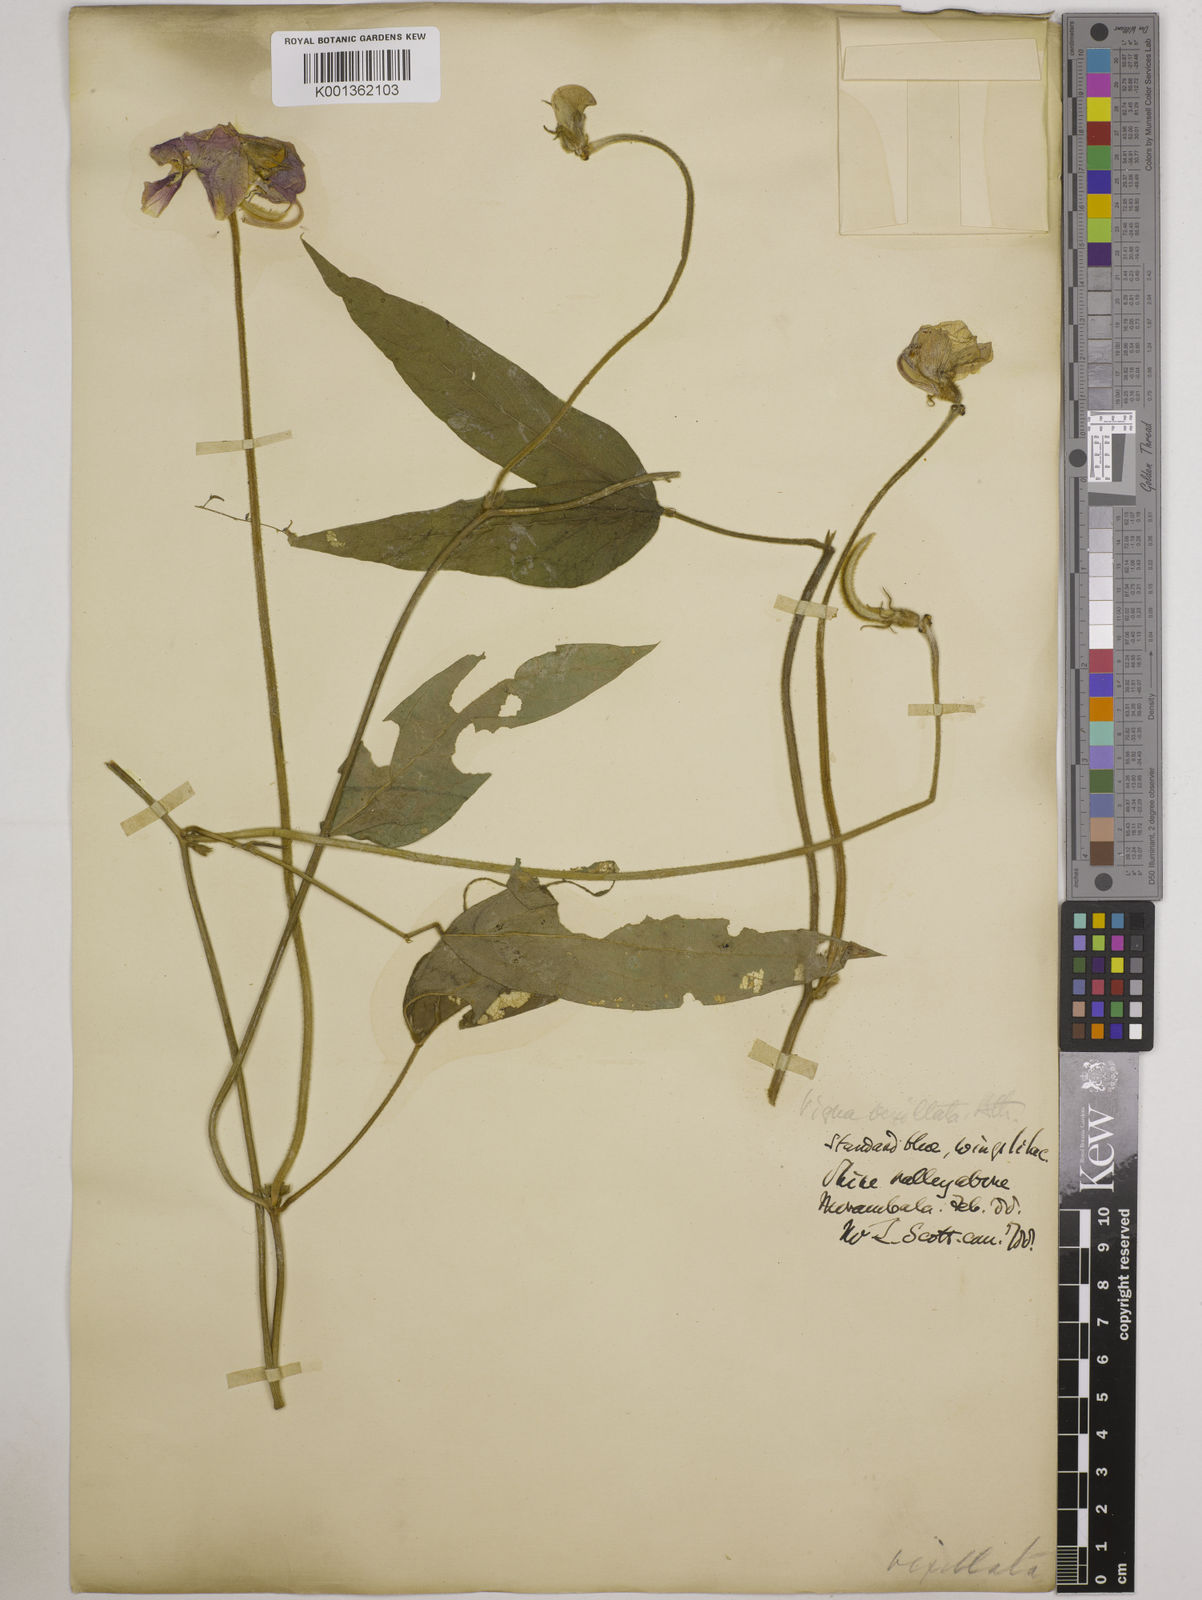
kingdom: Plantae
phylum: Tracheophyta
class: Magnoliopsida
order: Fabales
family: Fabaceae
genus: Vigna
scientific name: Vigna vexillata
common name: Zombi pea
